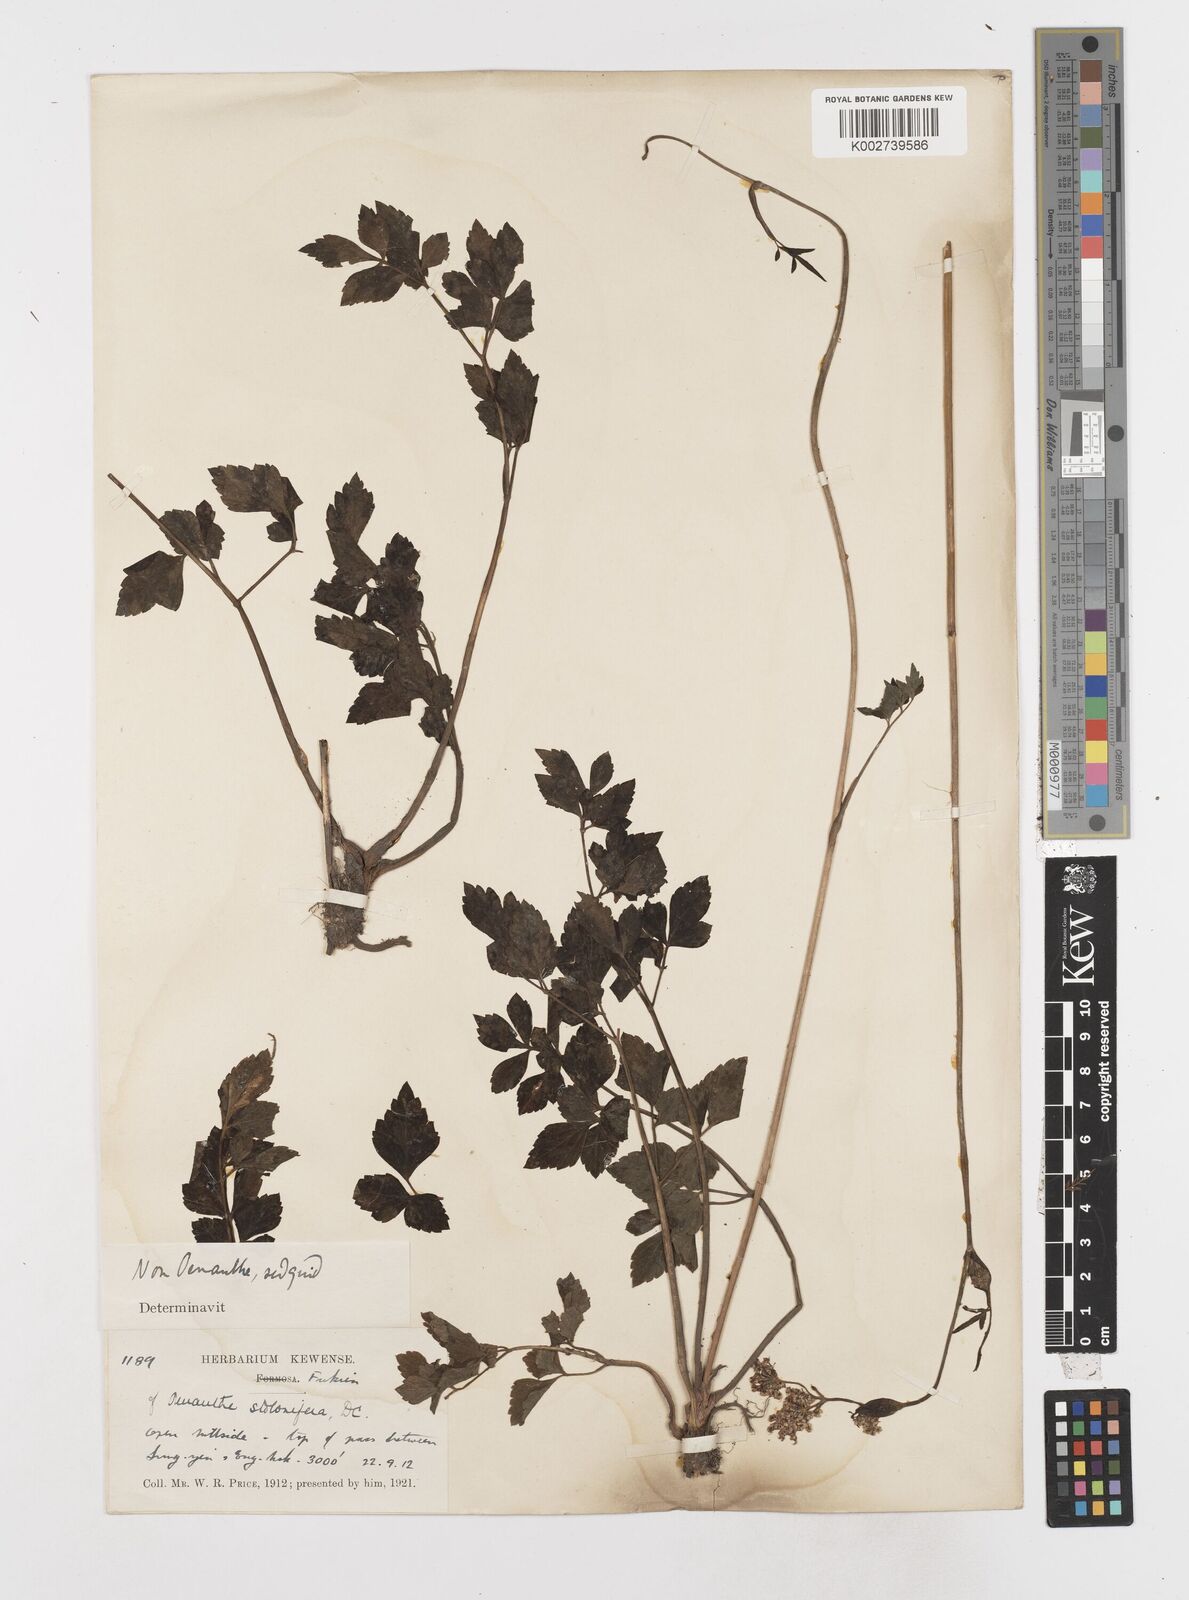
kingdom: Plantae
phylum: Tracheophyta
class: Magnoliopsida
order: Apiales
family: Apiaceae
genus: Oenanthe
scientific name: Oenanthe amoena
